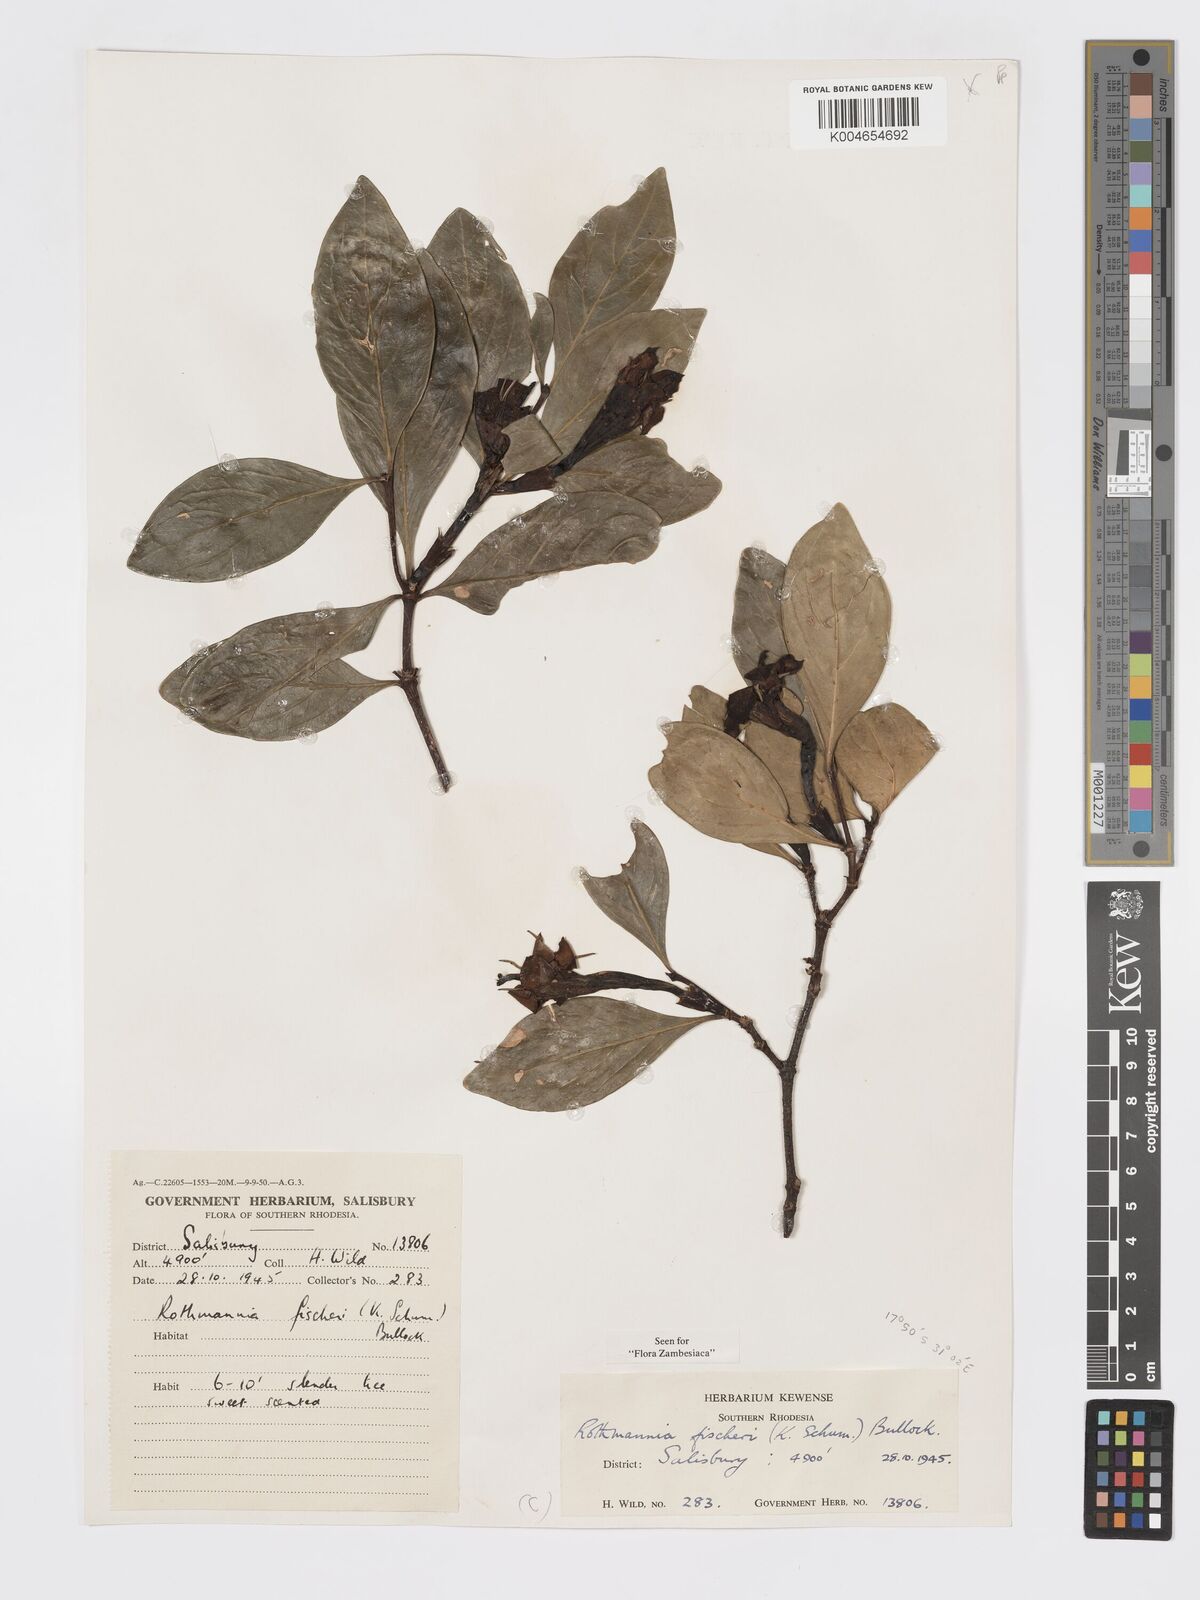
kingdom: Plantae
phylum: Tracheophyta
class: Magnoliopsida
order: Gentianales
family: Rubiaceae
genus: Rothmannia
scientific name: Rothmannia fischeri
